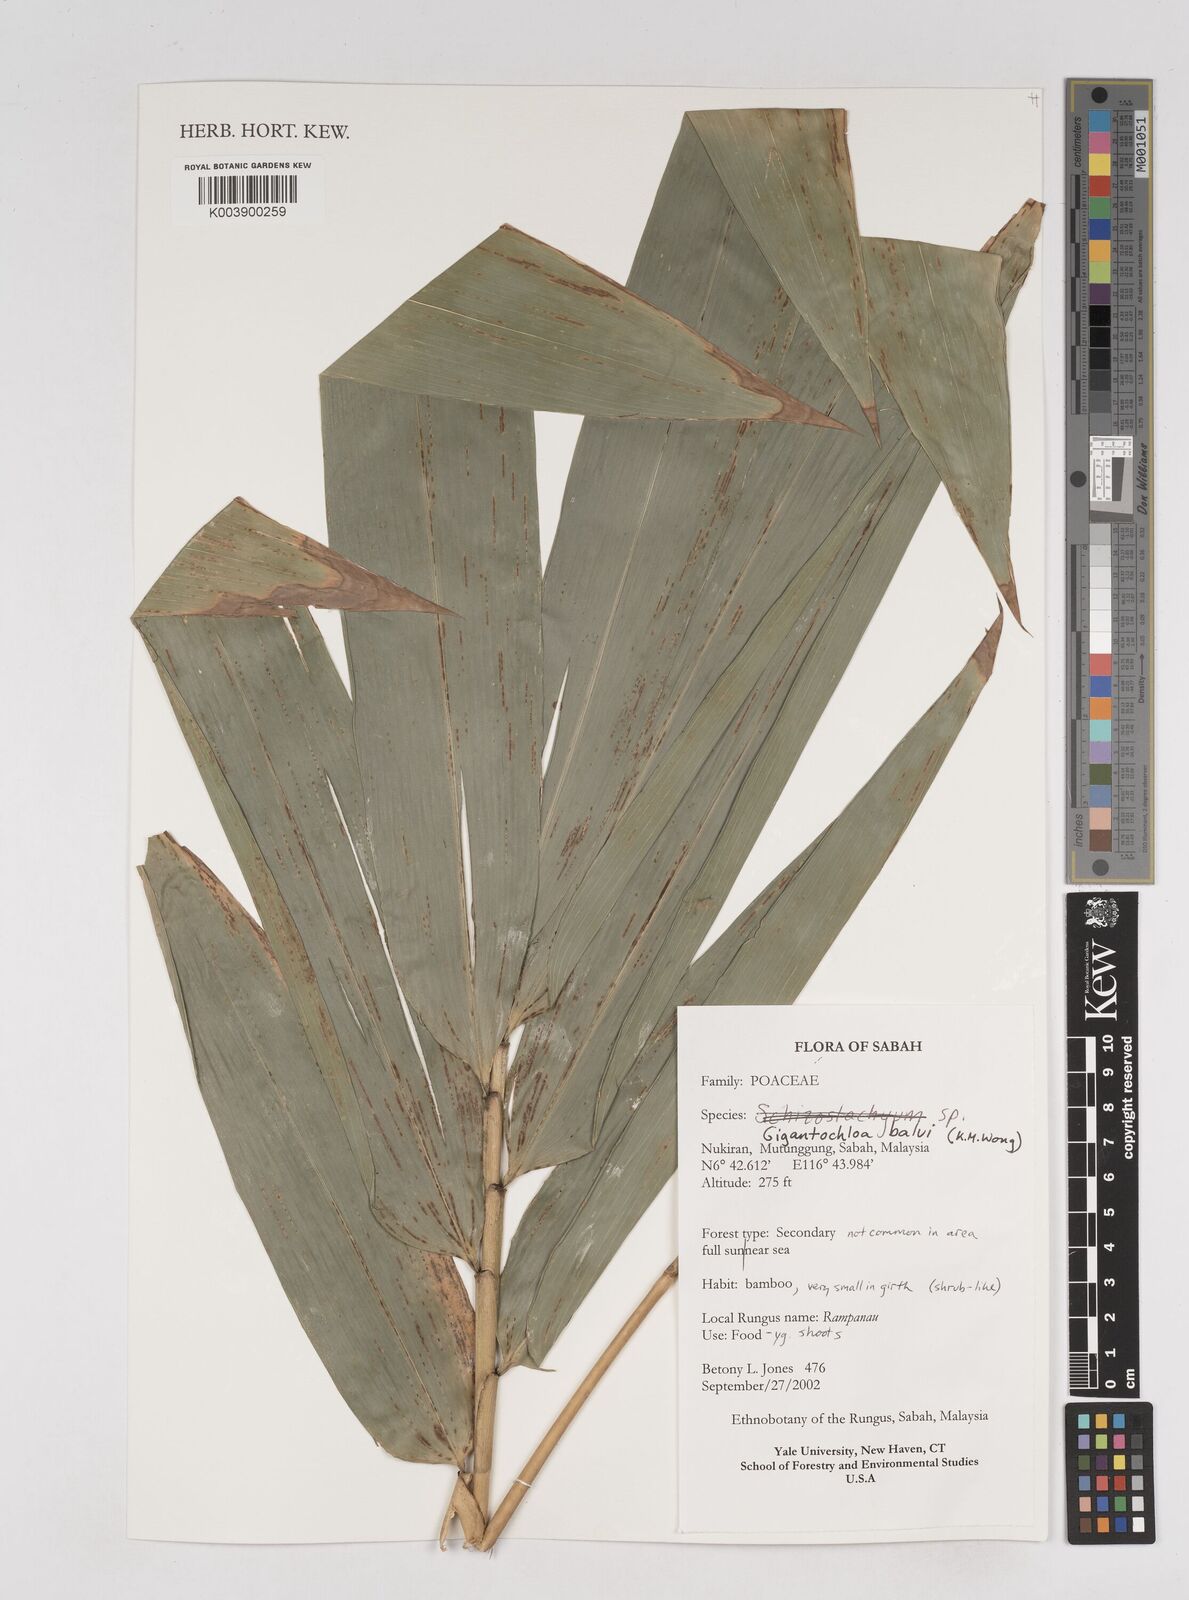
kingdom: Plantae
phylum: Tracheophyta
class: Liliopsida
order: Poales
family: Poaceae
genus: Gigantochloa
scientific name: Gigantochloa balui
